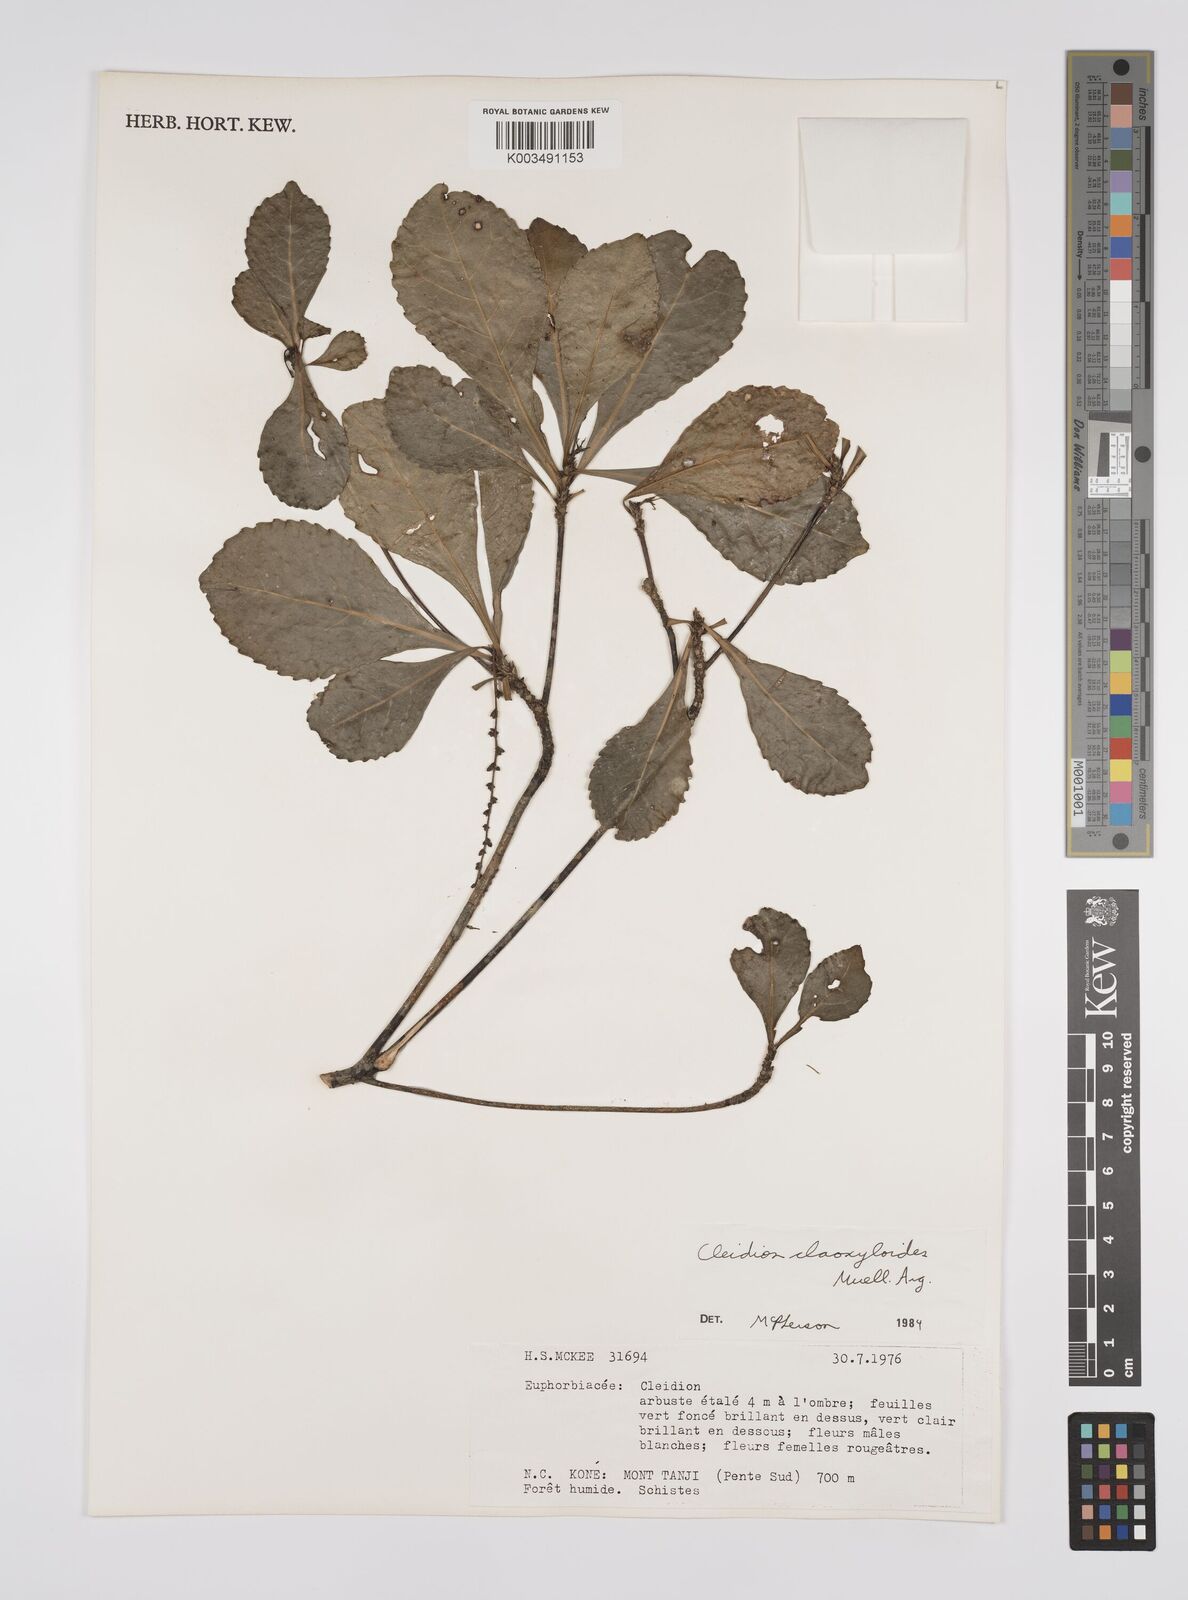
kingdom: Plantae
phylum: Tracheophyta
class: Magnoliopsida
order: Malpighiales
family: Euphorbiaceae
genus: Cleidion
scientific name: Cleidion claoxyloides
